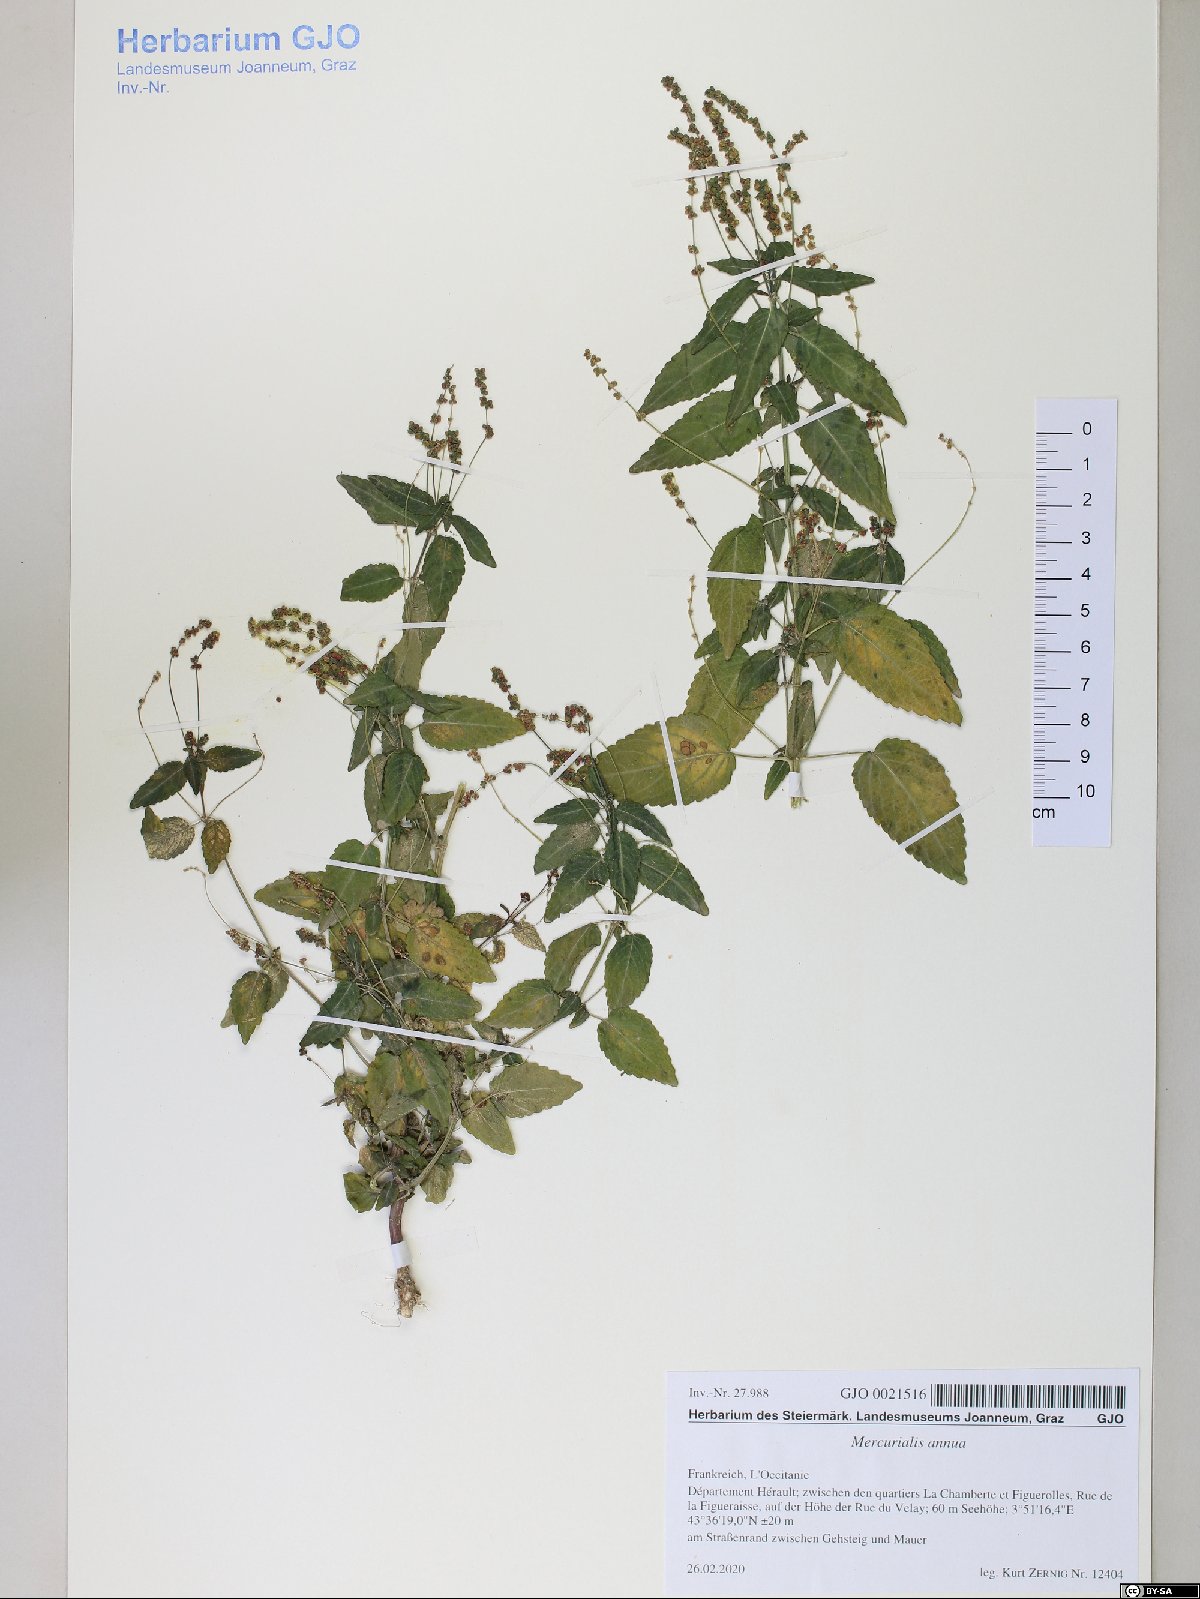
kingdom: Plantae
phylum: Tracheophyta
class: Magnoliopsida
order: Malpighiales
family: Euphorbiaceae
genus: Mercurialis
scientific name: Mercurialis annua
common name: Annual mercury
